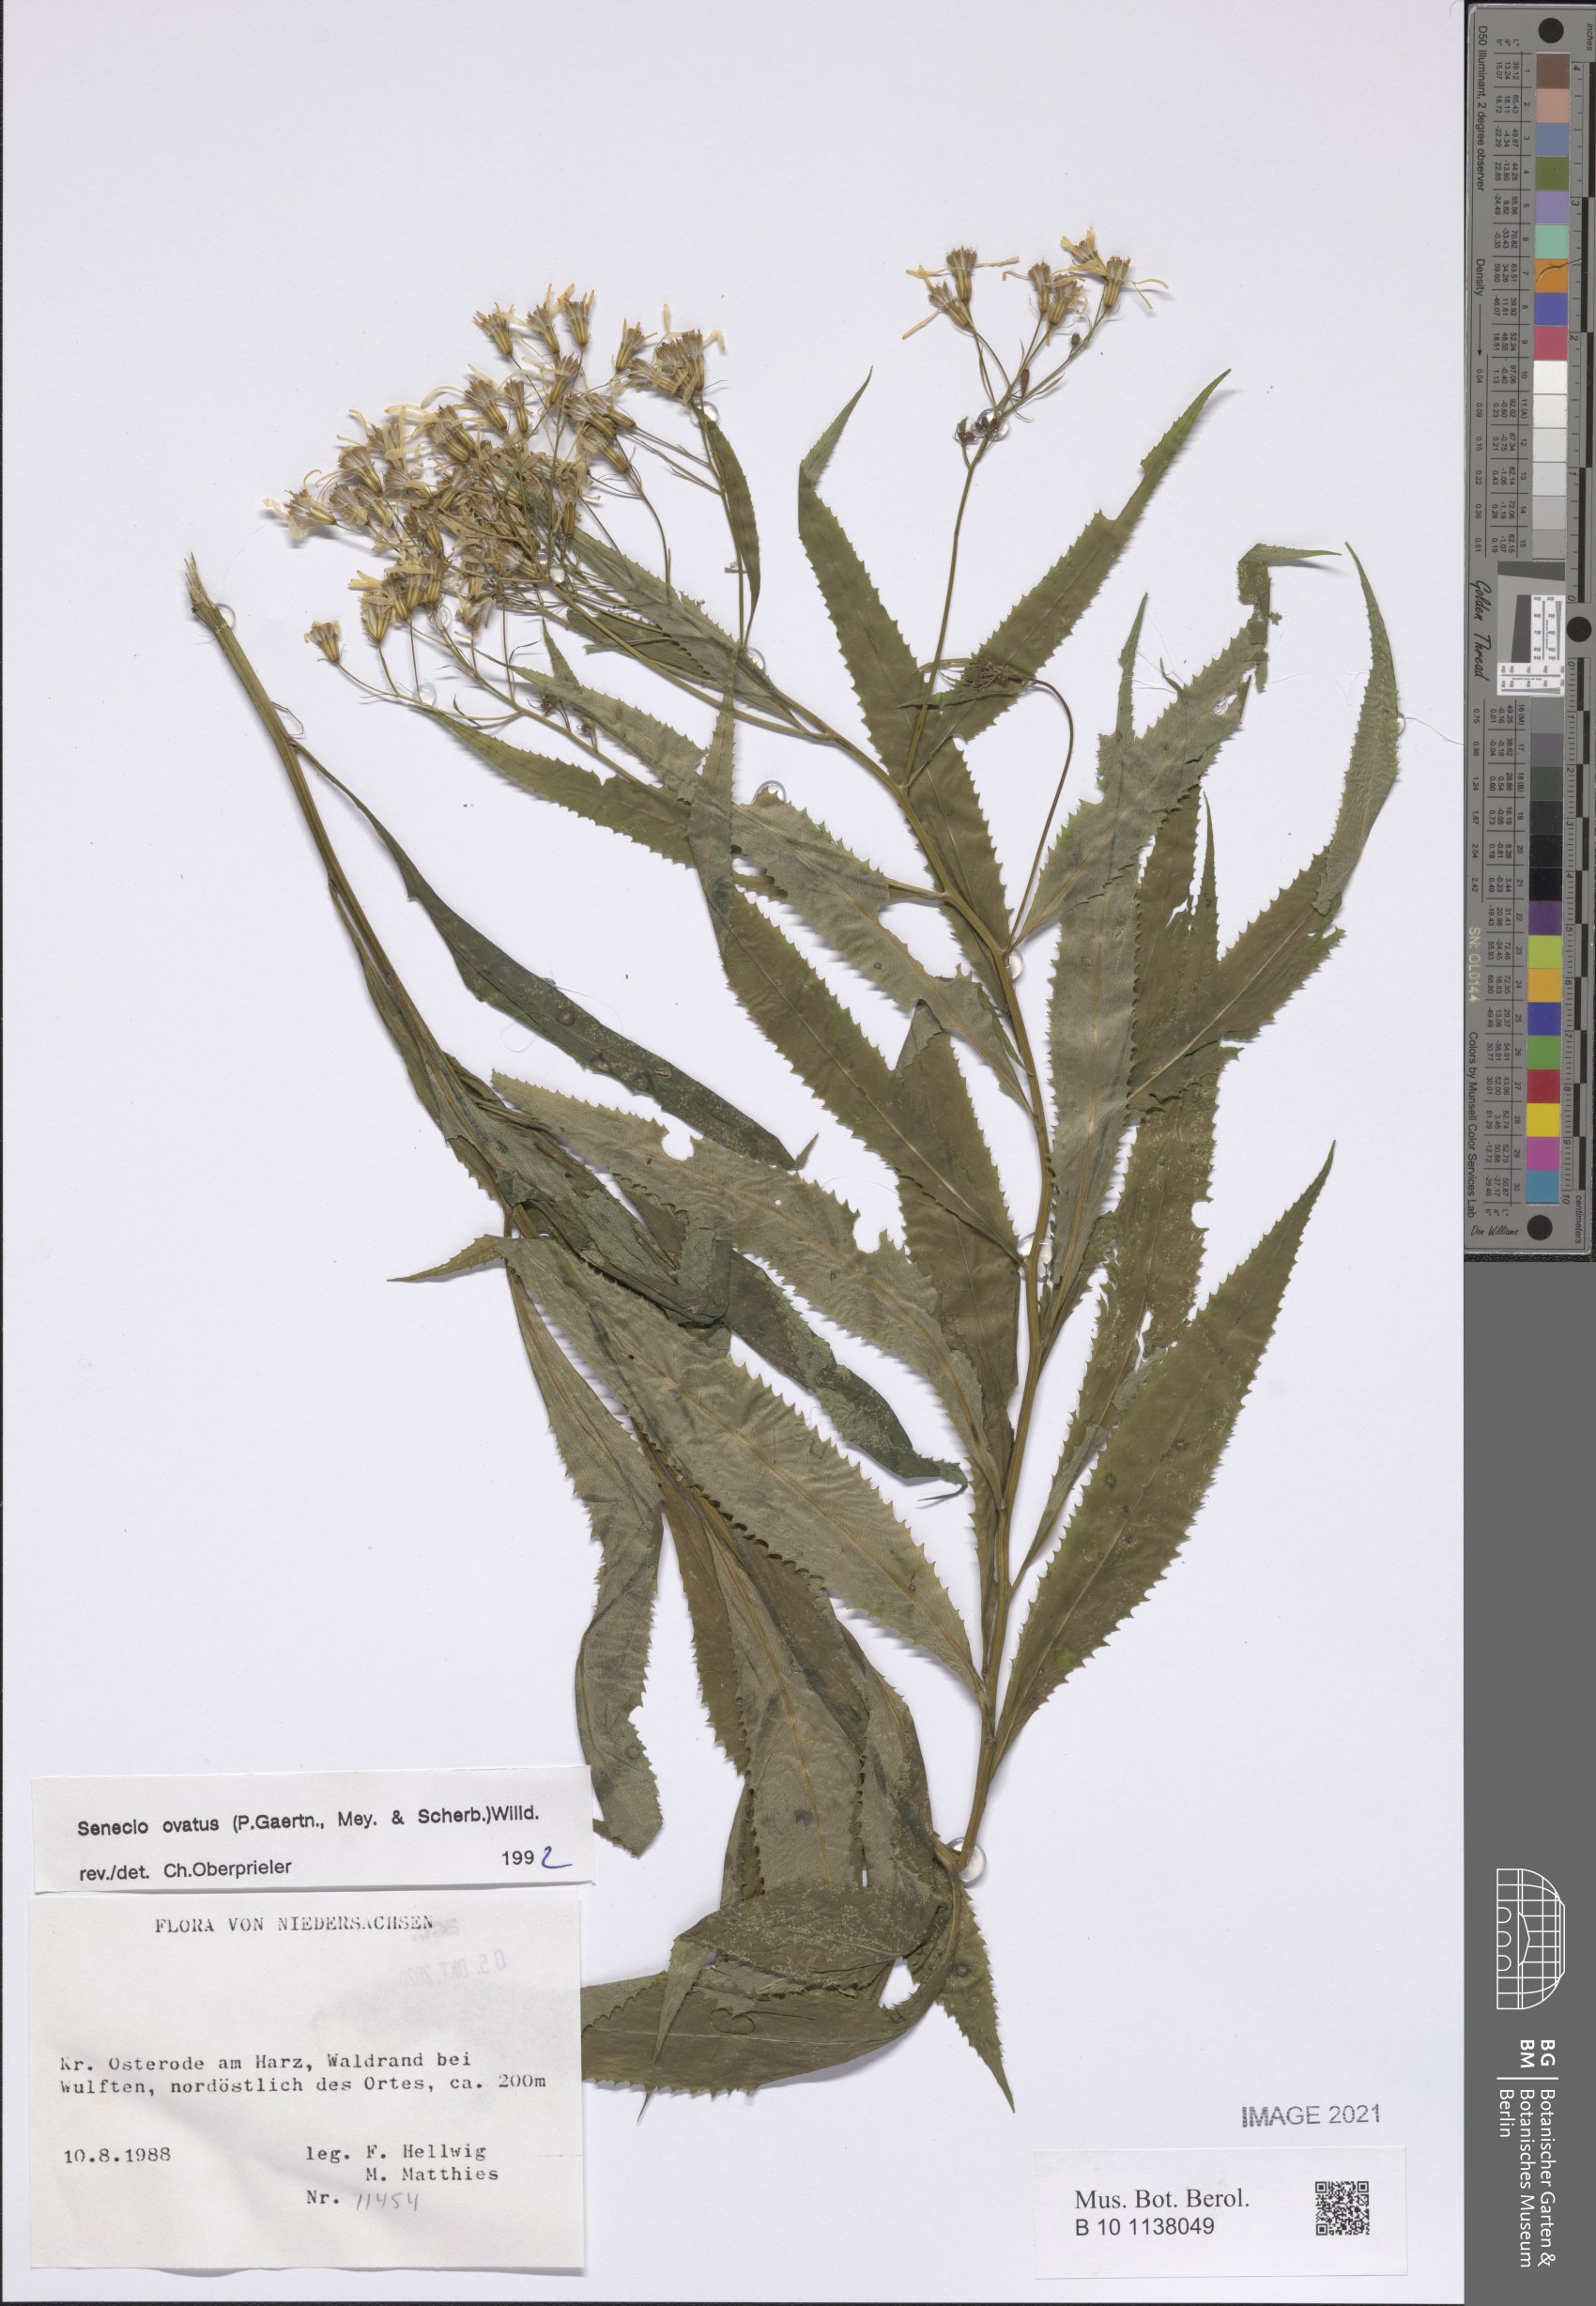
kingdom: Plantae
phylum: Tracheophyta
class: Magnoliopsida
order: Asterales
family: Asteraceae
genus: Senecio
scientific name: Senecio ovatus
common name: Wood ragwort
